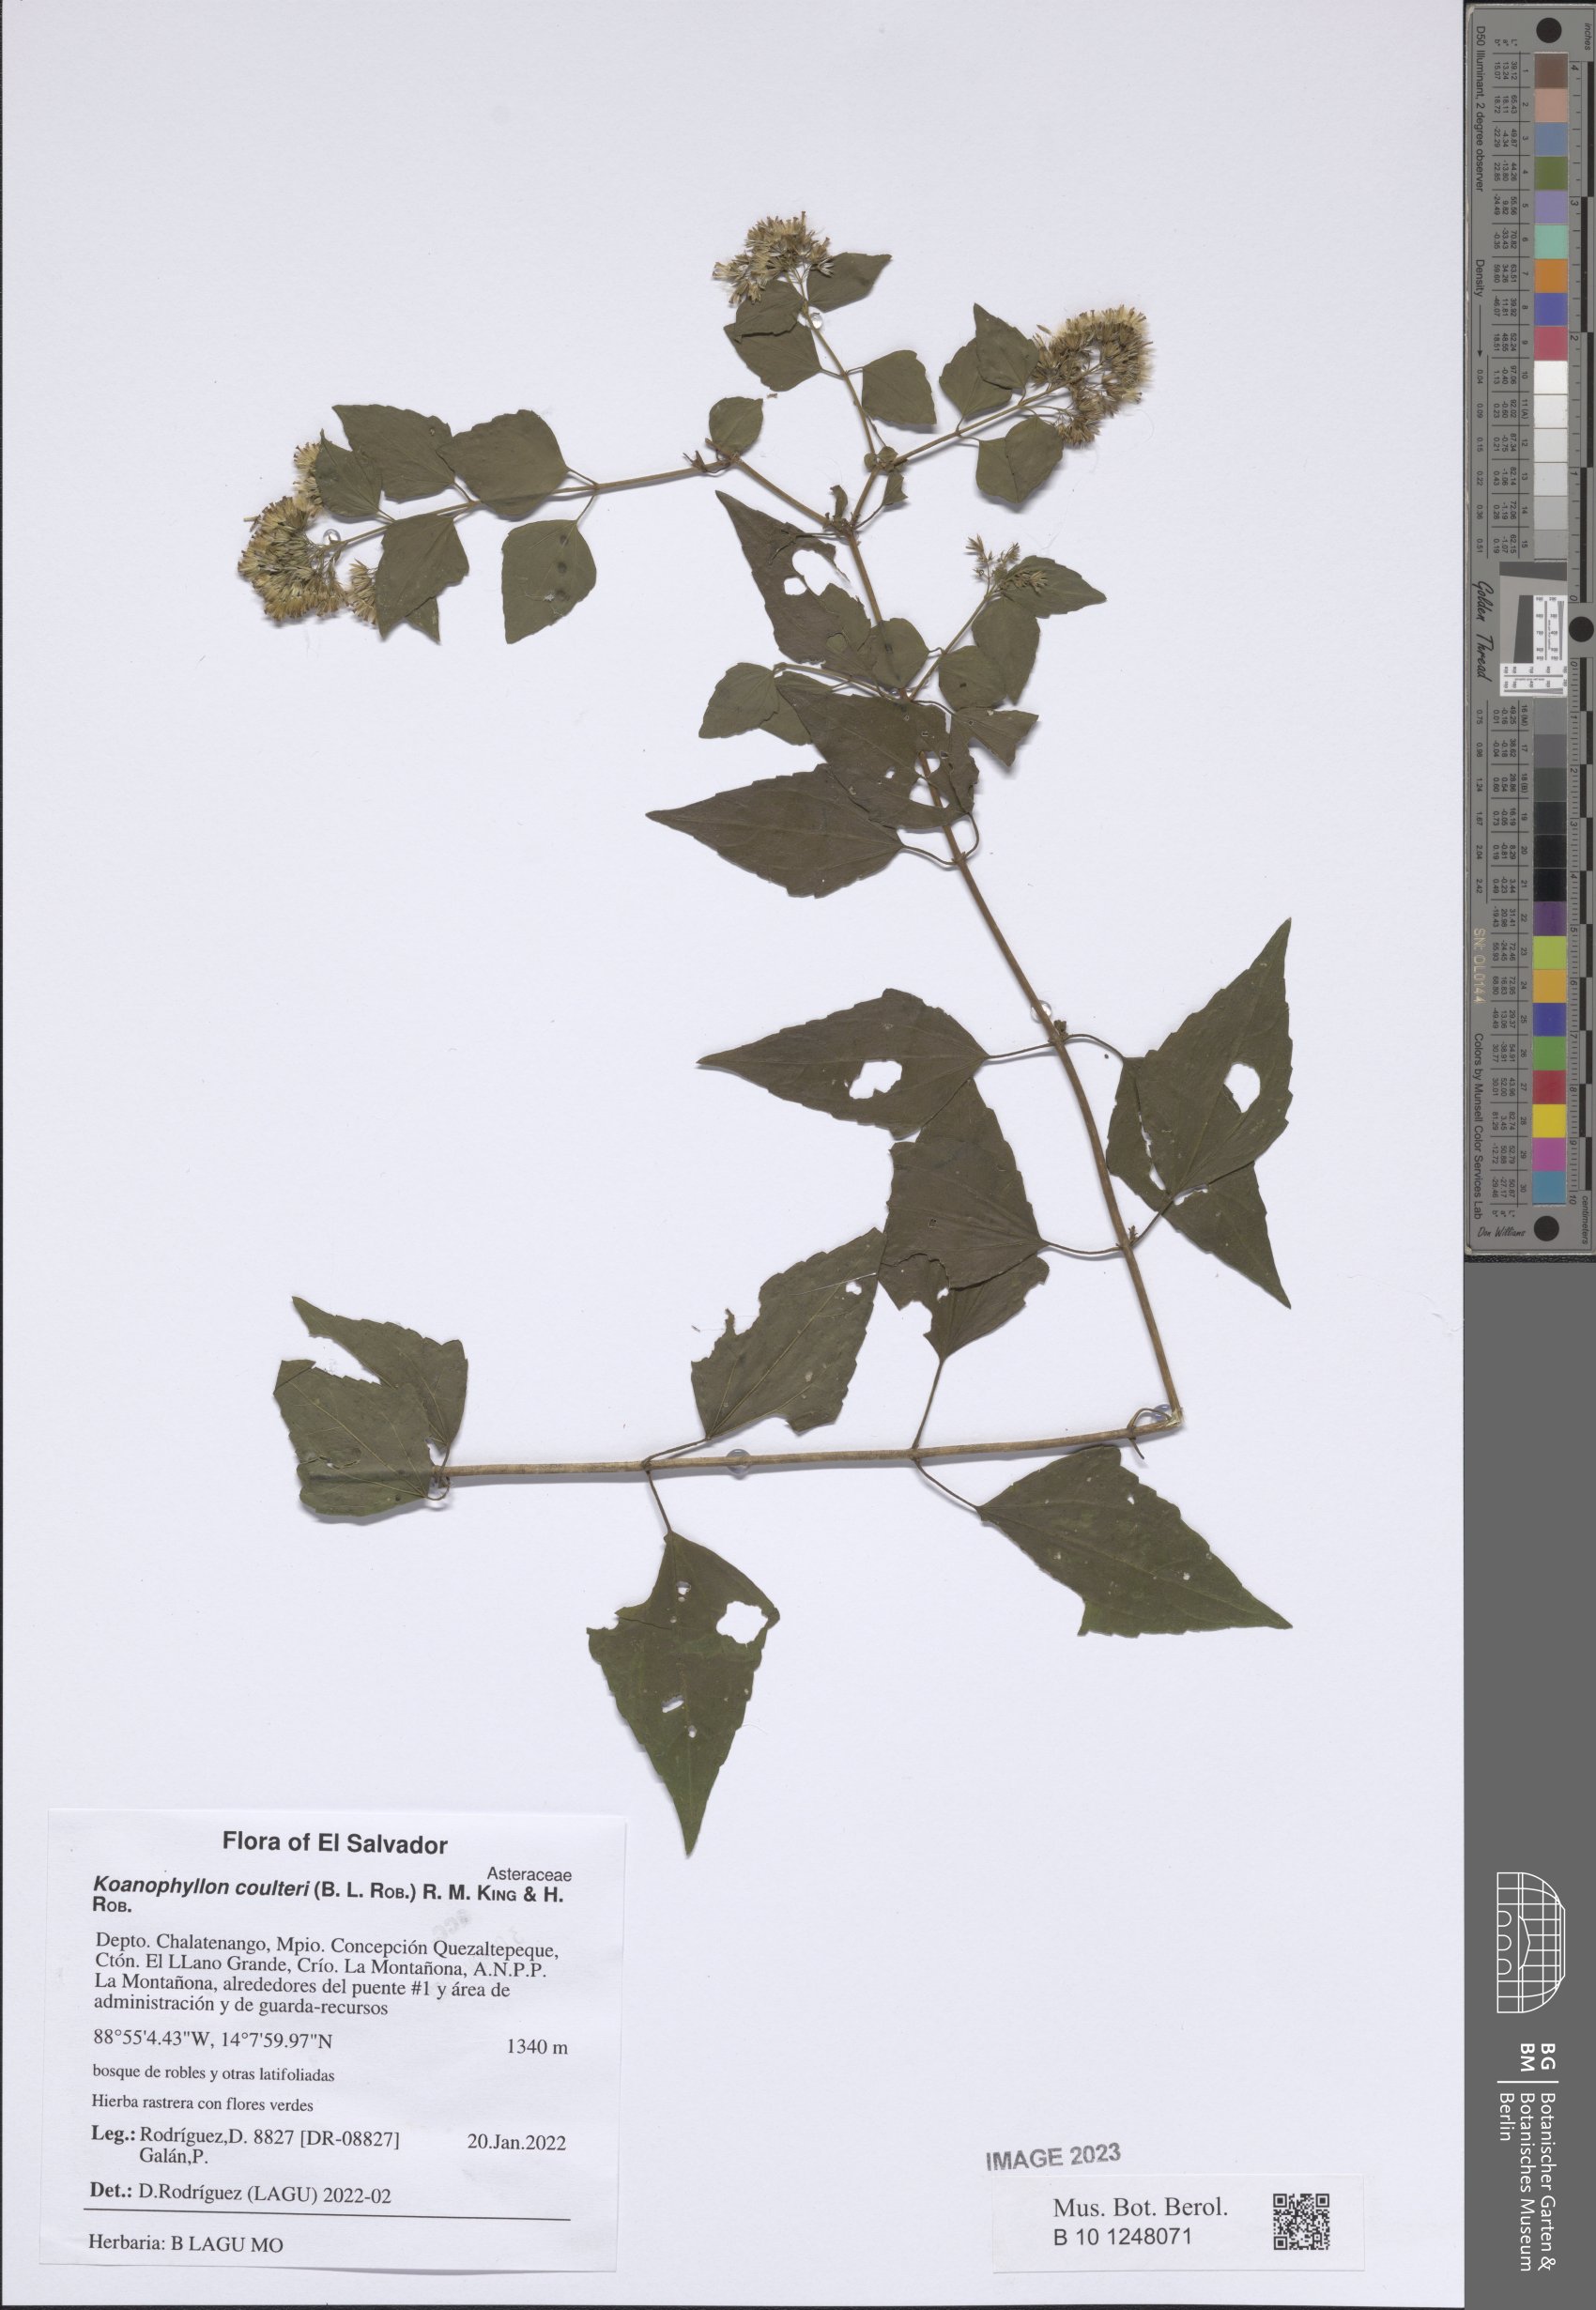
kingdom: Plantae
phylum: Tracheophyta
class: Magnoliopsida
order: Asterales
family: Asteraceae
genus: Koanophyllon
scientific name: Koanophyllon coulteri
